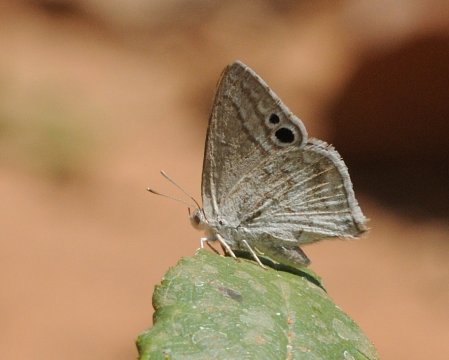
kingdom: Animalia
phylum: Arthropoda
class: Insecta
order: Lepidoptera
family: Lycaenidae
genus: Leptomyrina
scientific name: Leptomyrina gorgias
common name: Common Black-eye
